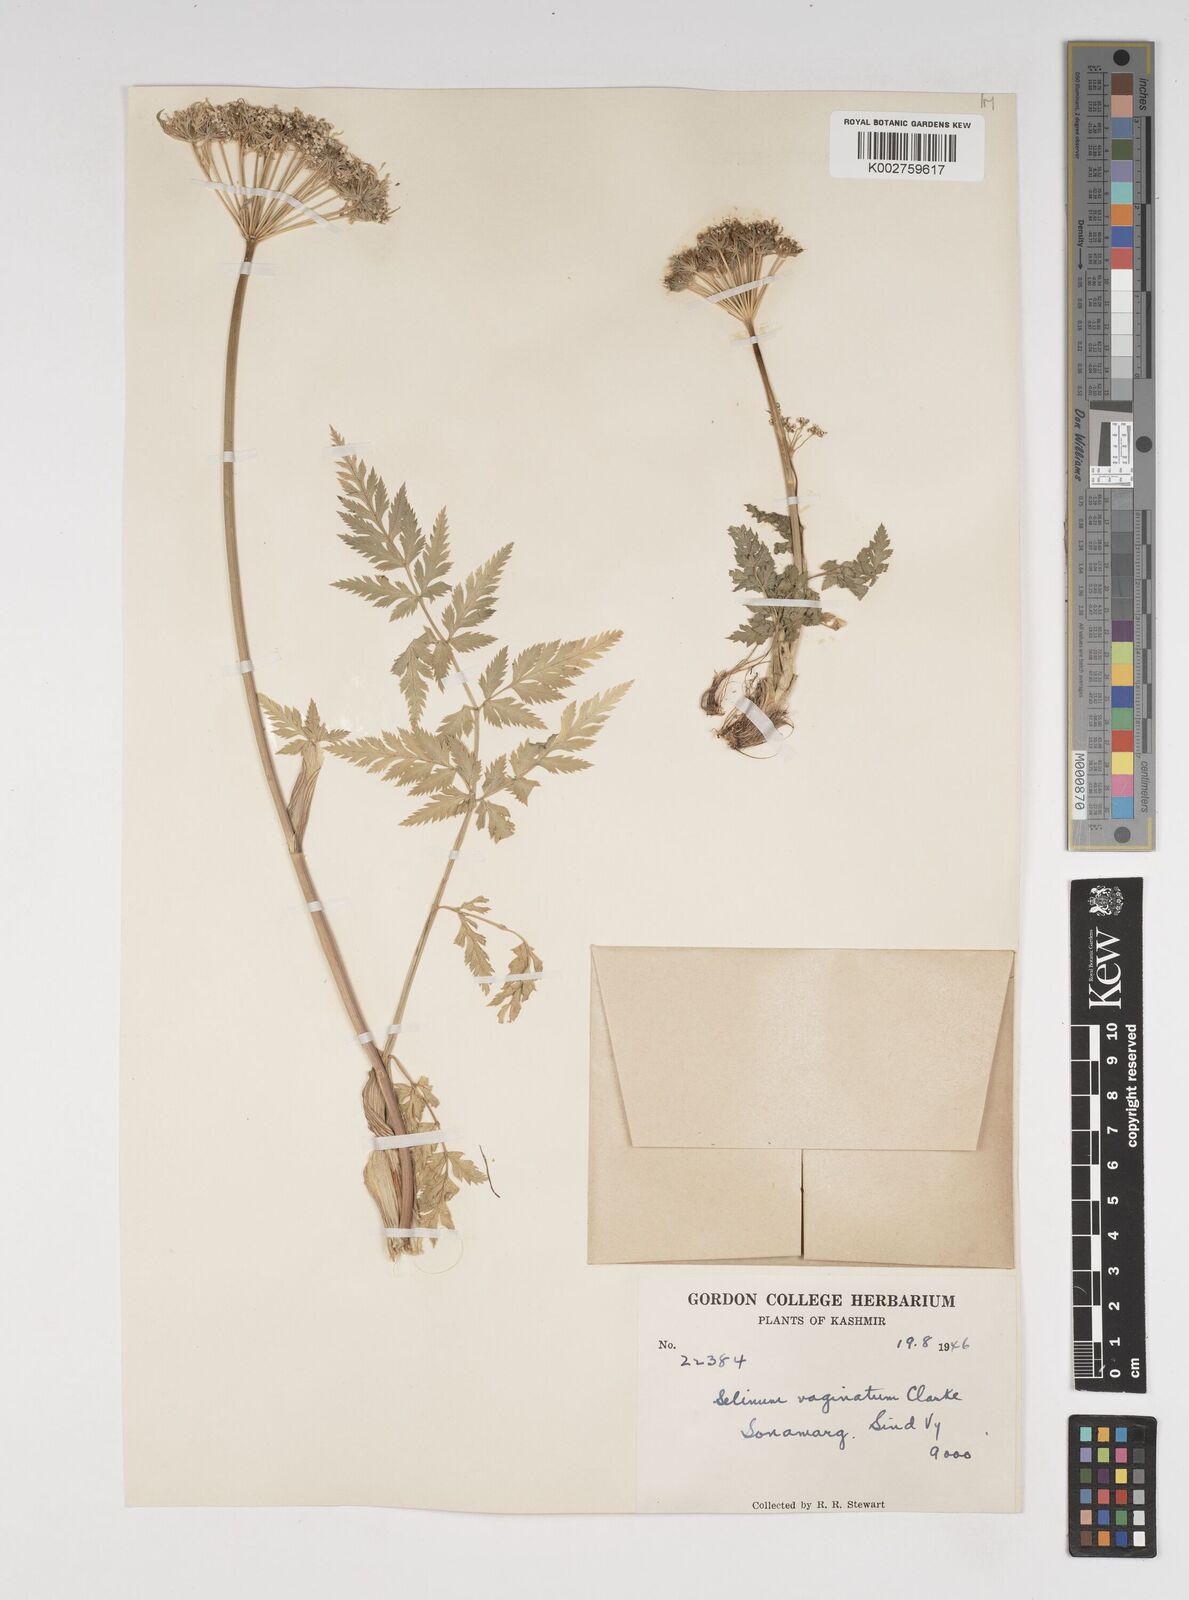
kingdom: Plantae
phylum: Tracheophyta
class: Magnoliopsida
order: Apiales
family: Apiaceae
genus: Selinum
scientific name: Selinum vaginatum
